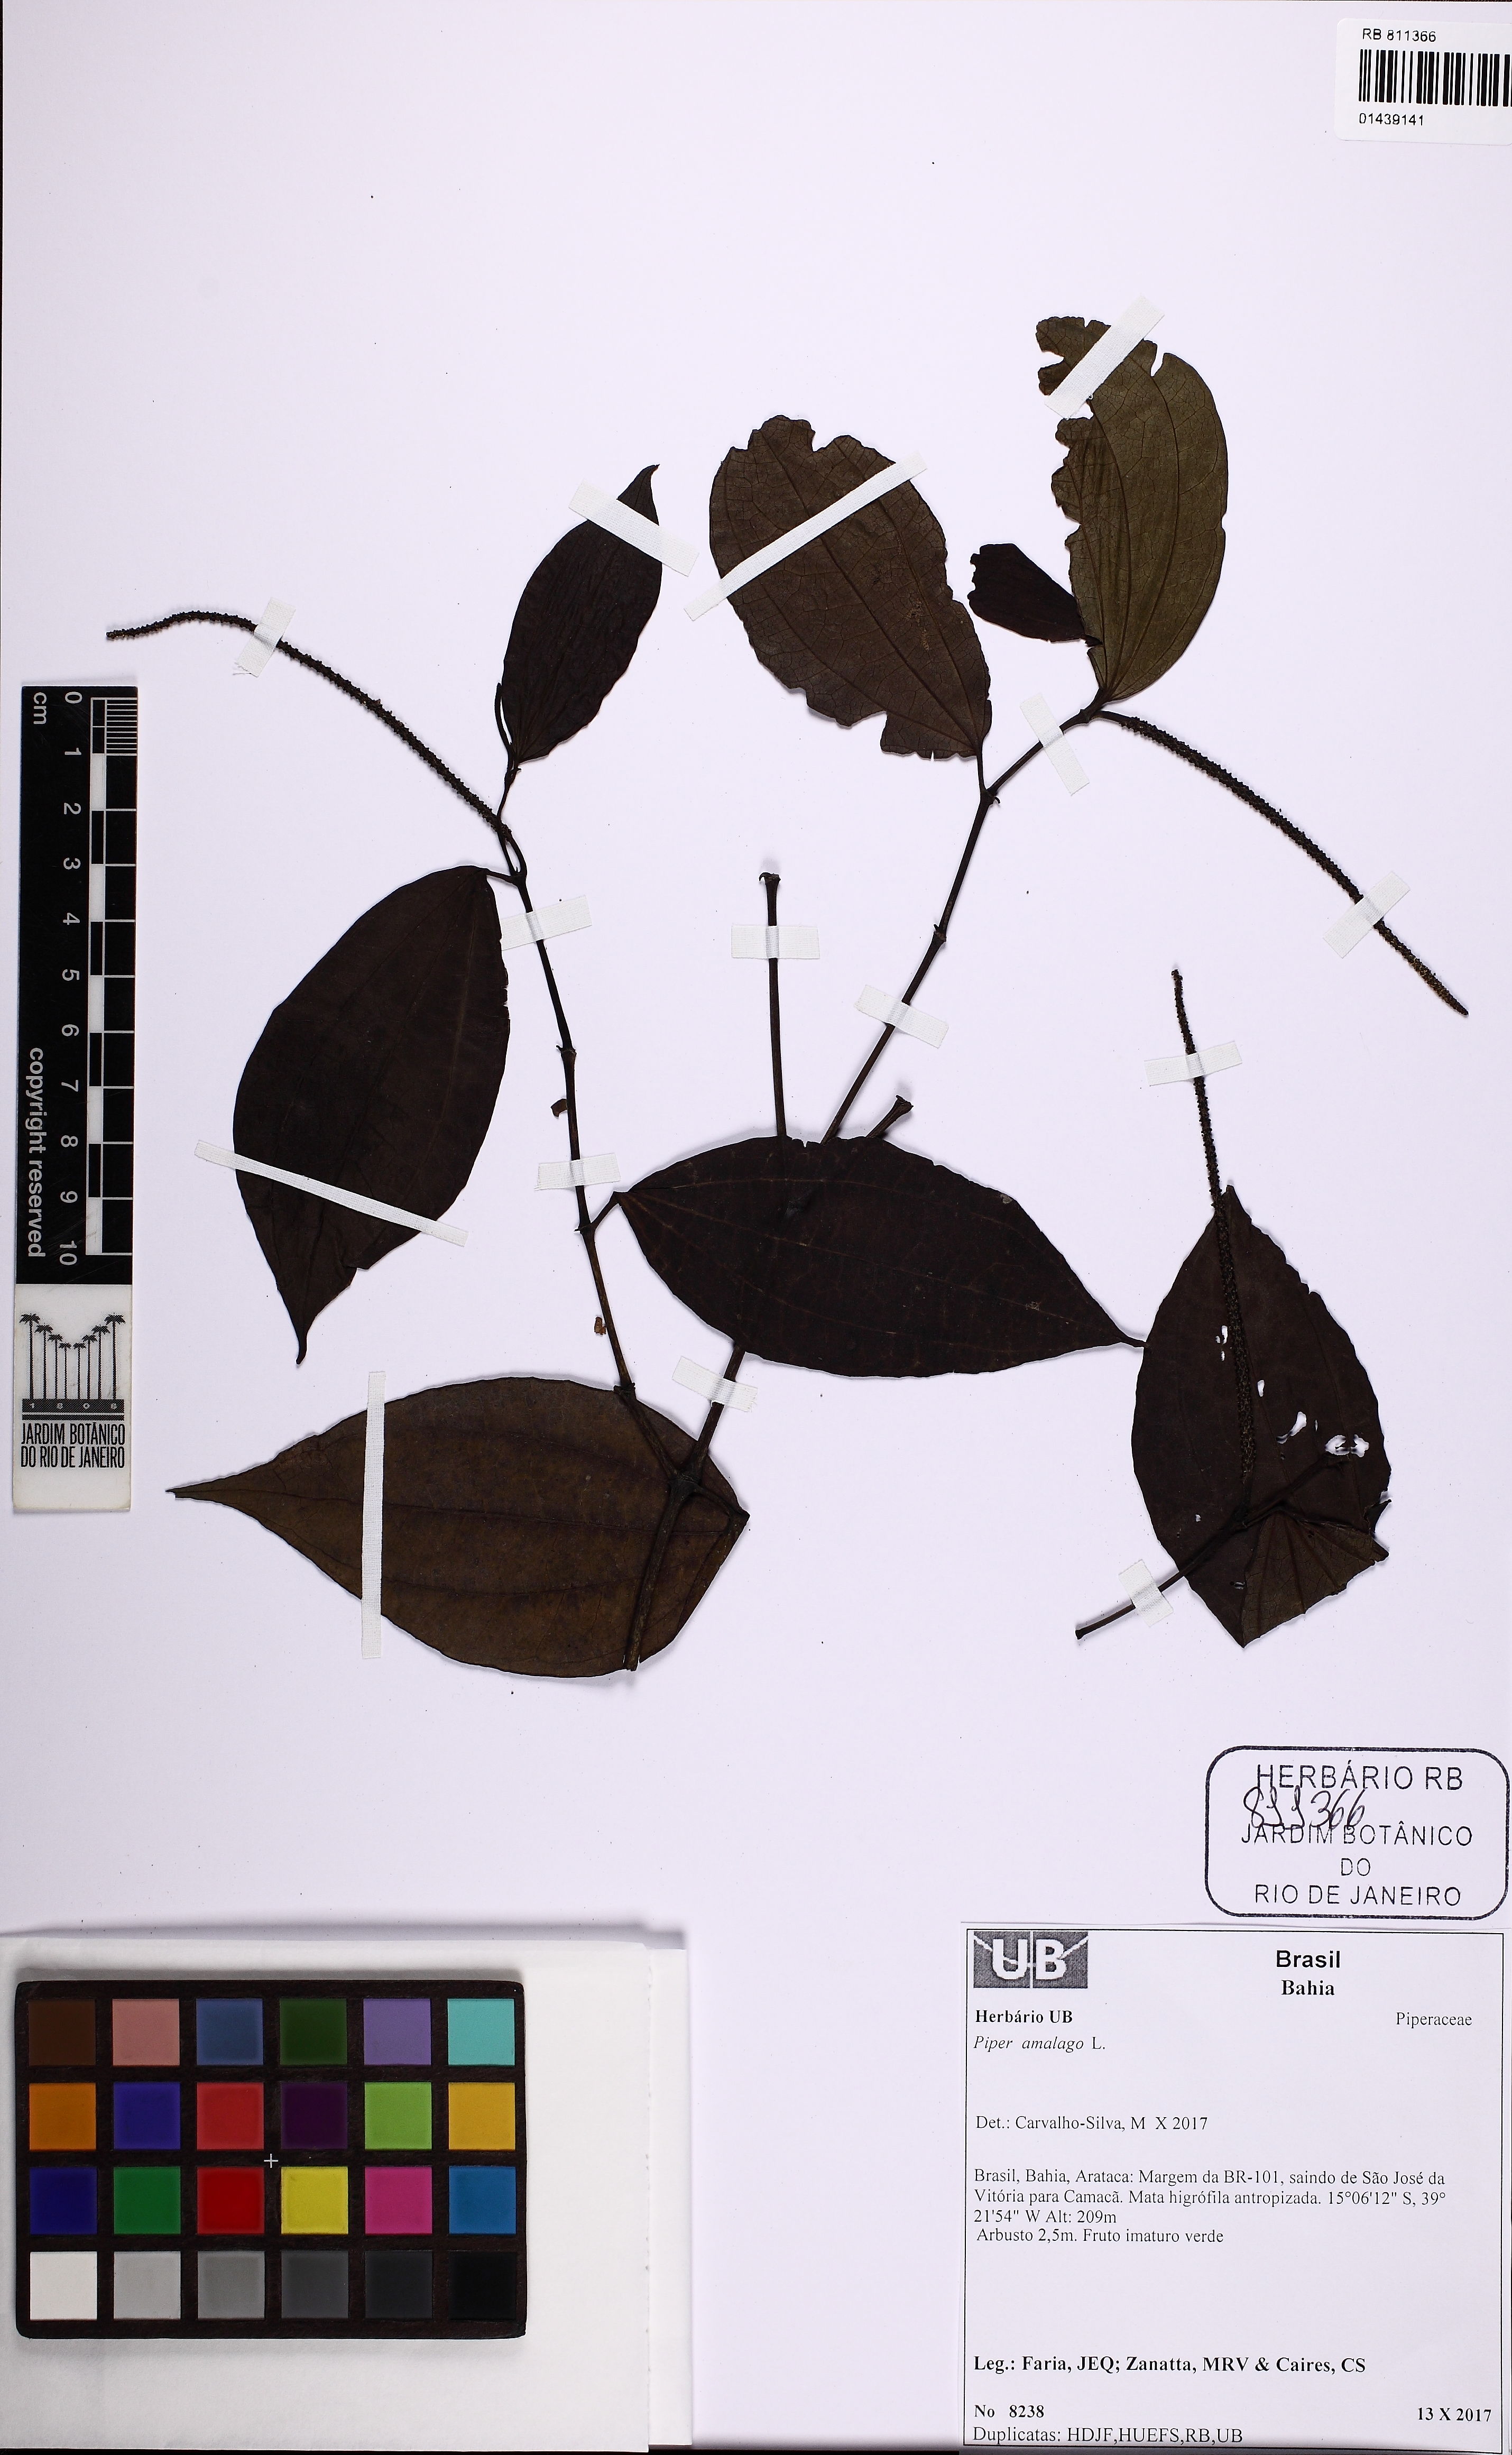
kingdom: Plantae
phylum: Tracheophyta
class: Magnoliopsida
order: Piperales
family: Piperaceae
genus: Piper
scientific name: Piper amalago
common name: Pepper-elder
